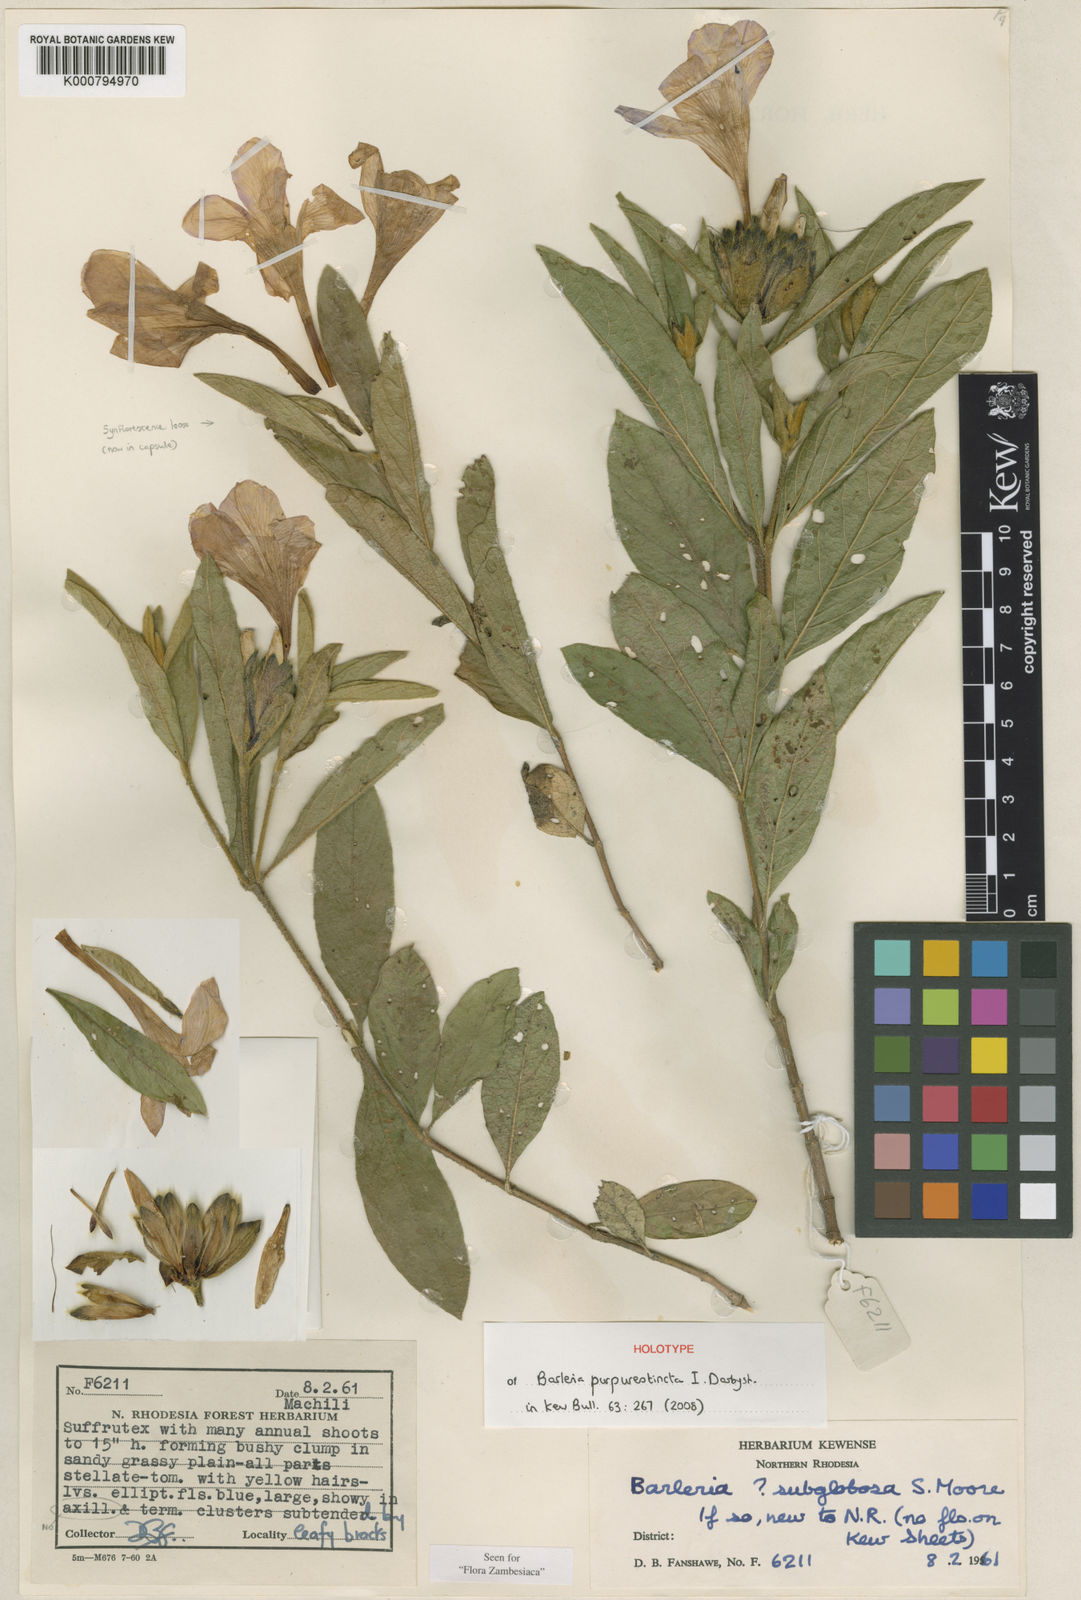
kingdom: Plantae
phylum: Tracheophyta
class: Magnoliopsida
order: Lamiales
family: Acanthaceae
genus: Barleria
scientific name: Barleria purpureotincta
